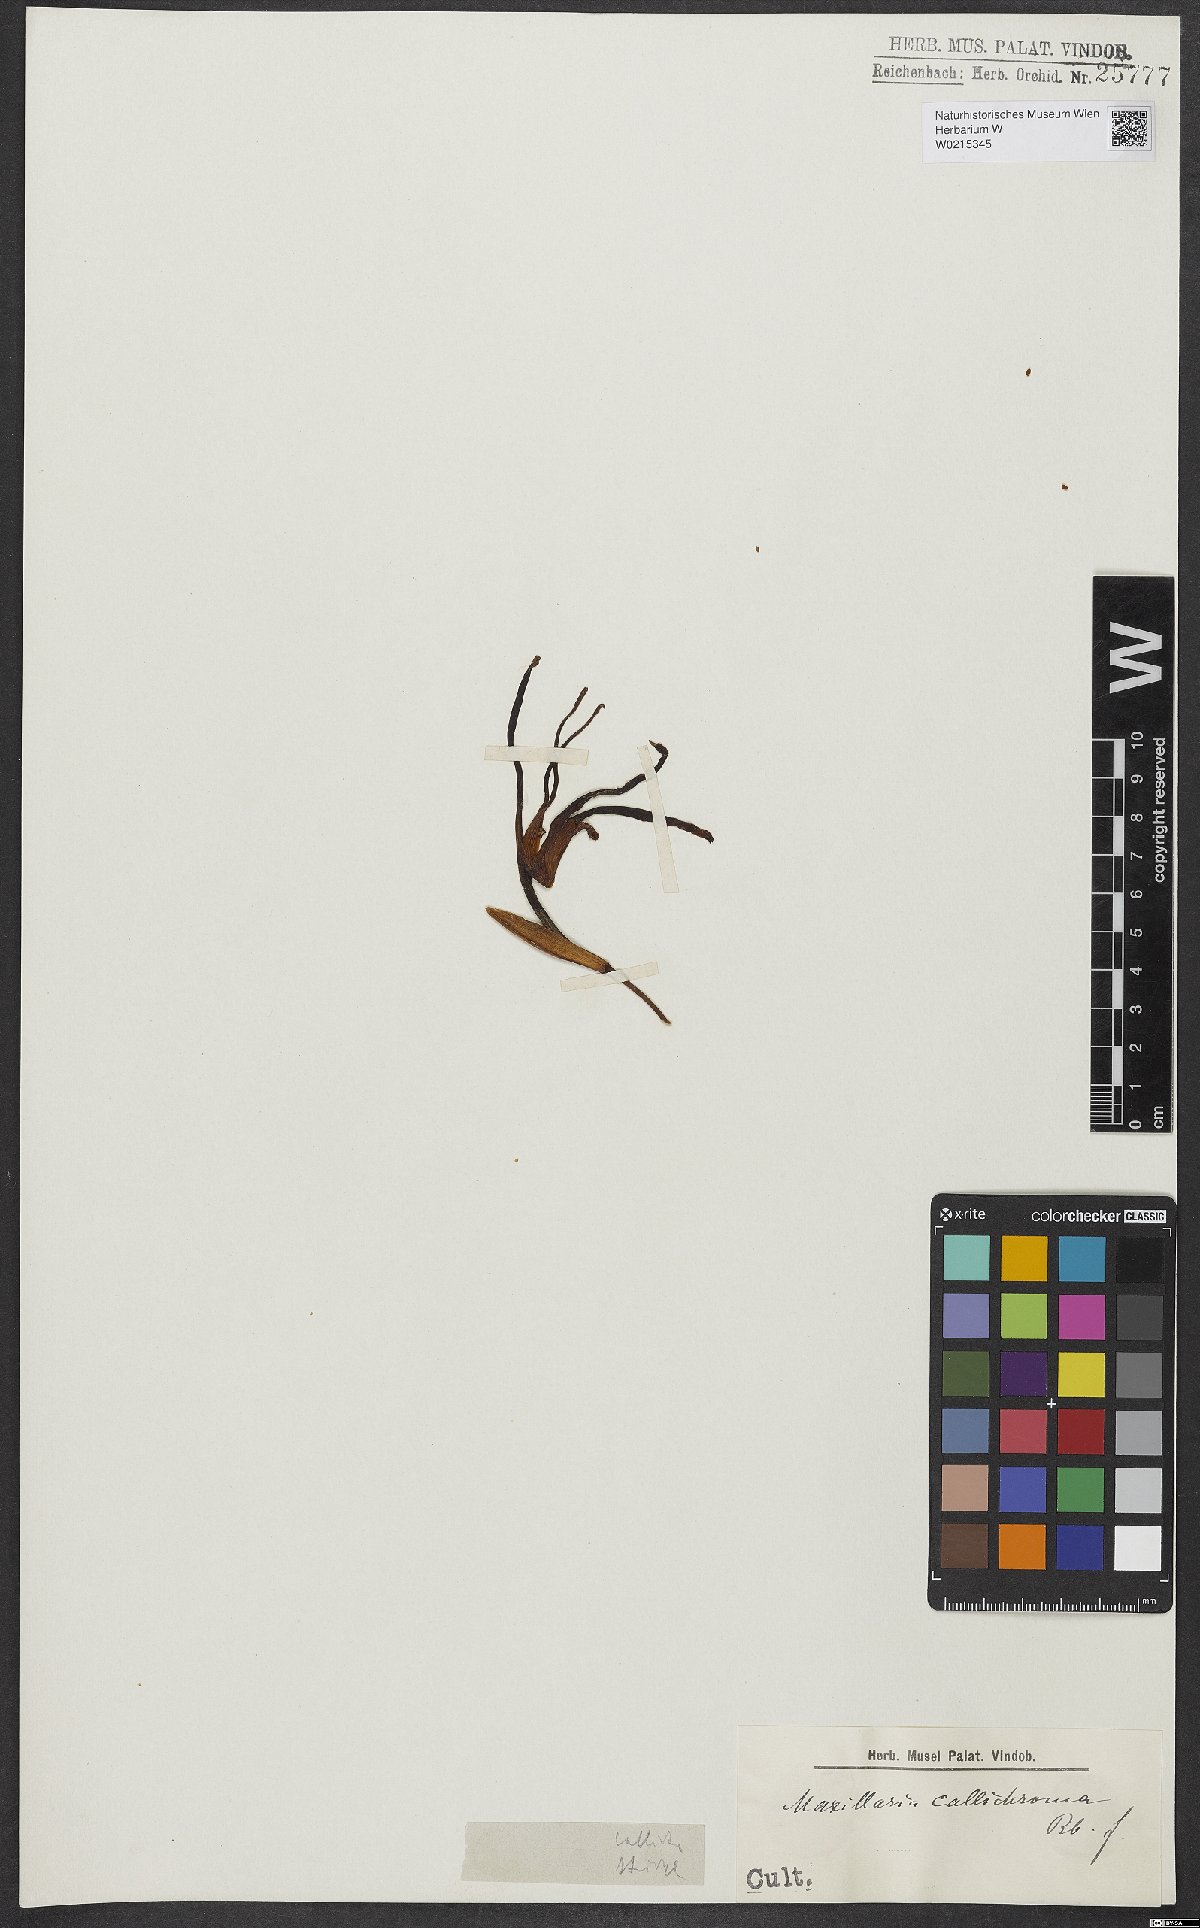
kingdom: Plantae
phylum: Tracheophyta
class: Liliopsida
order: Asparagales
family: Orchidaceae
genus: Maxillaria
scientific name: Maxillaria callichroma
